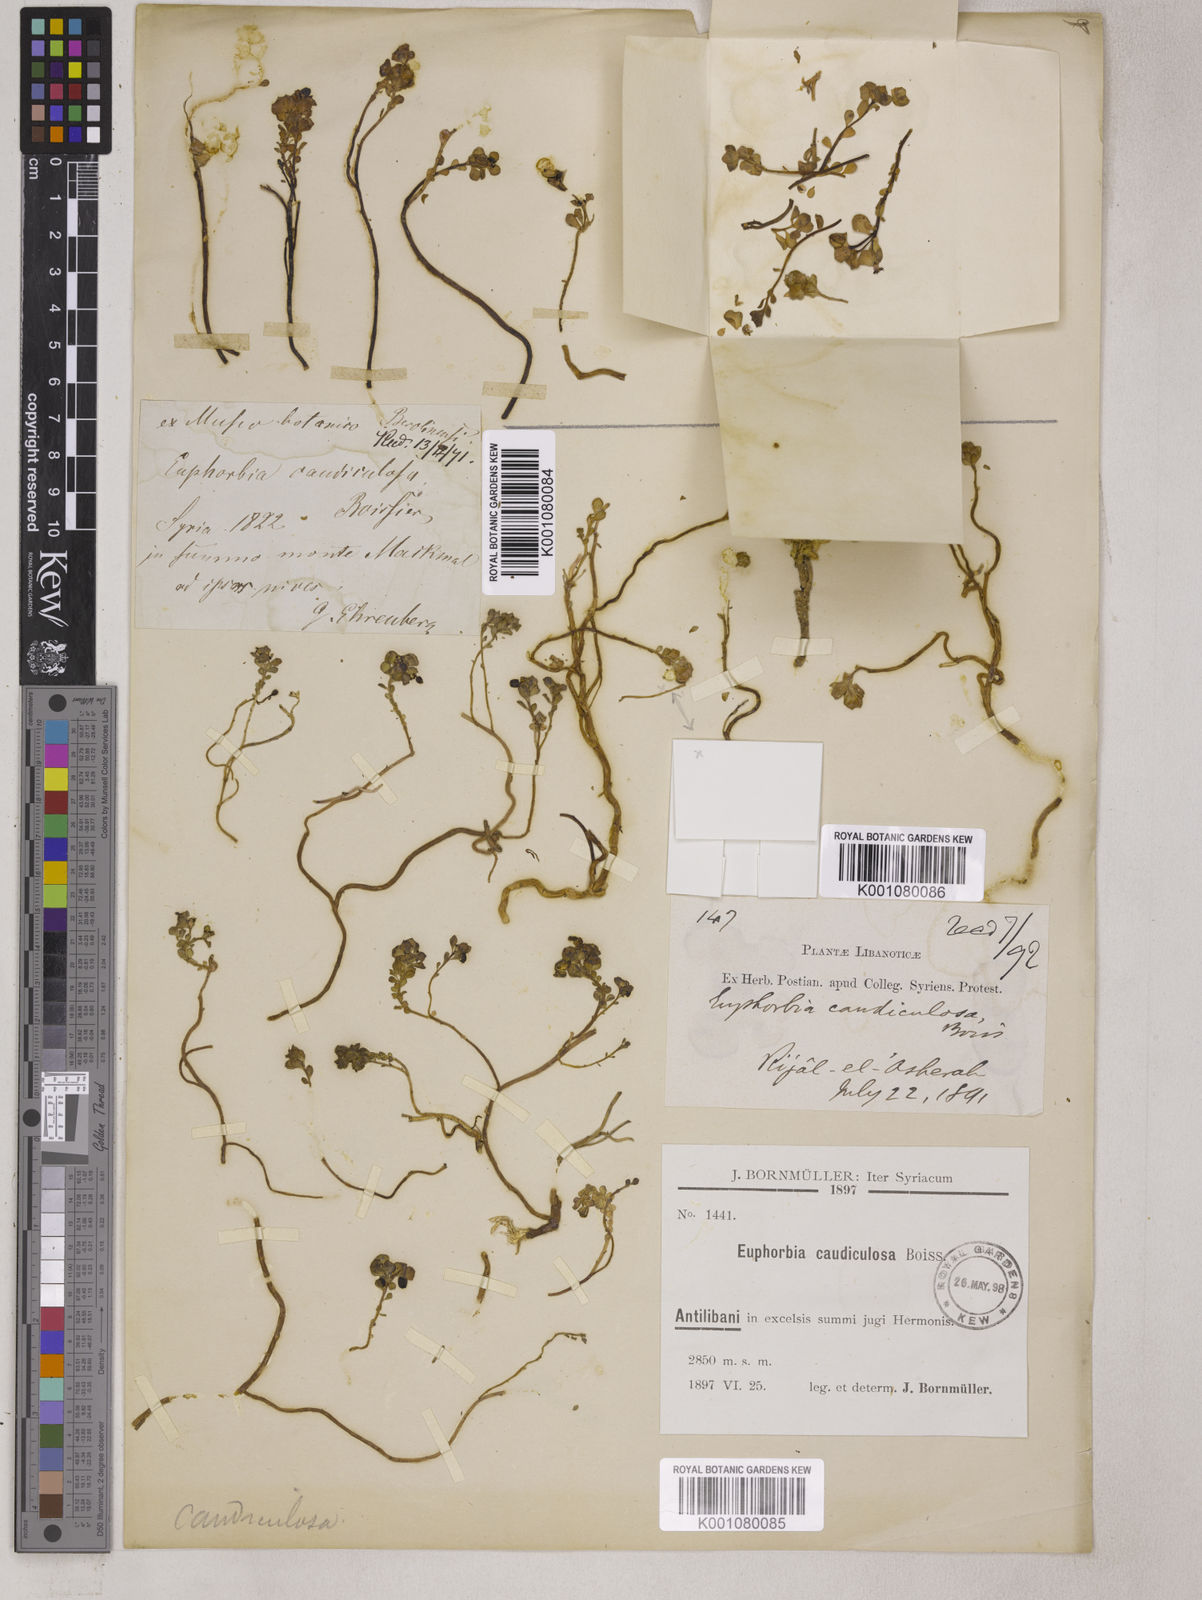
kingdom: Plantae
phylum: Tracheophyta
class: Magnoliopsida
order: Malpighiales
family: Euphorbiaceae
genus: Euphorbia
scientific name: Euphorbia caudiculosa
